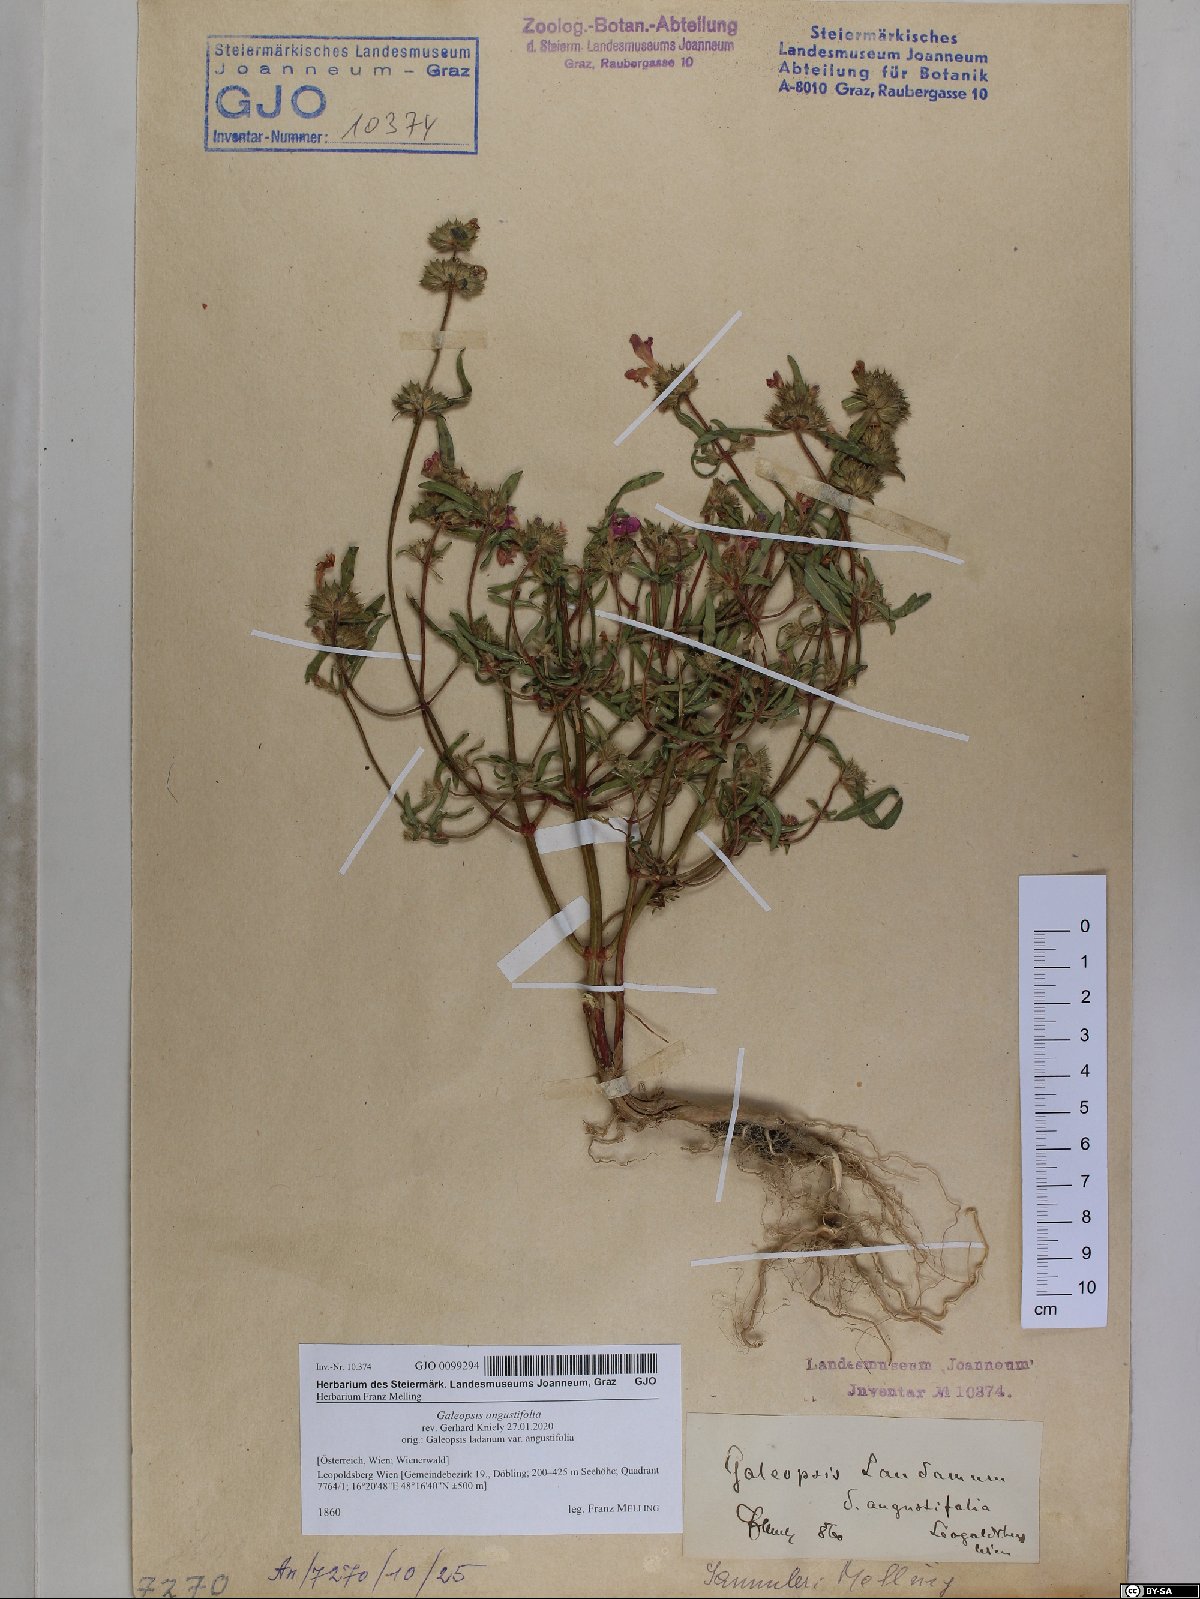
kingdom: Plantae
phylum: Tracheophyta
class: Magnoliopsida
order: Lamiales
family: Lamiaceae
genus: Galeopsis
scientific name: Galeopsis angustifolia
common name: Red hemp-nettle
